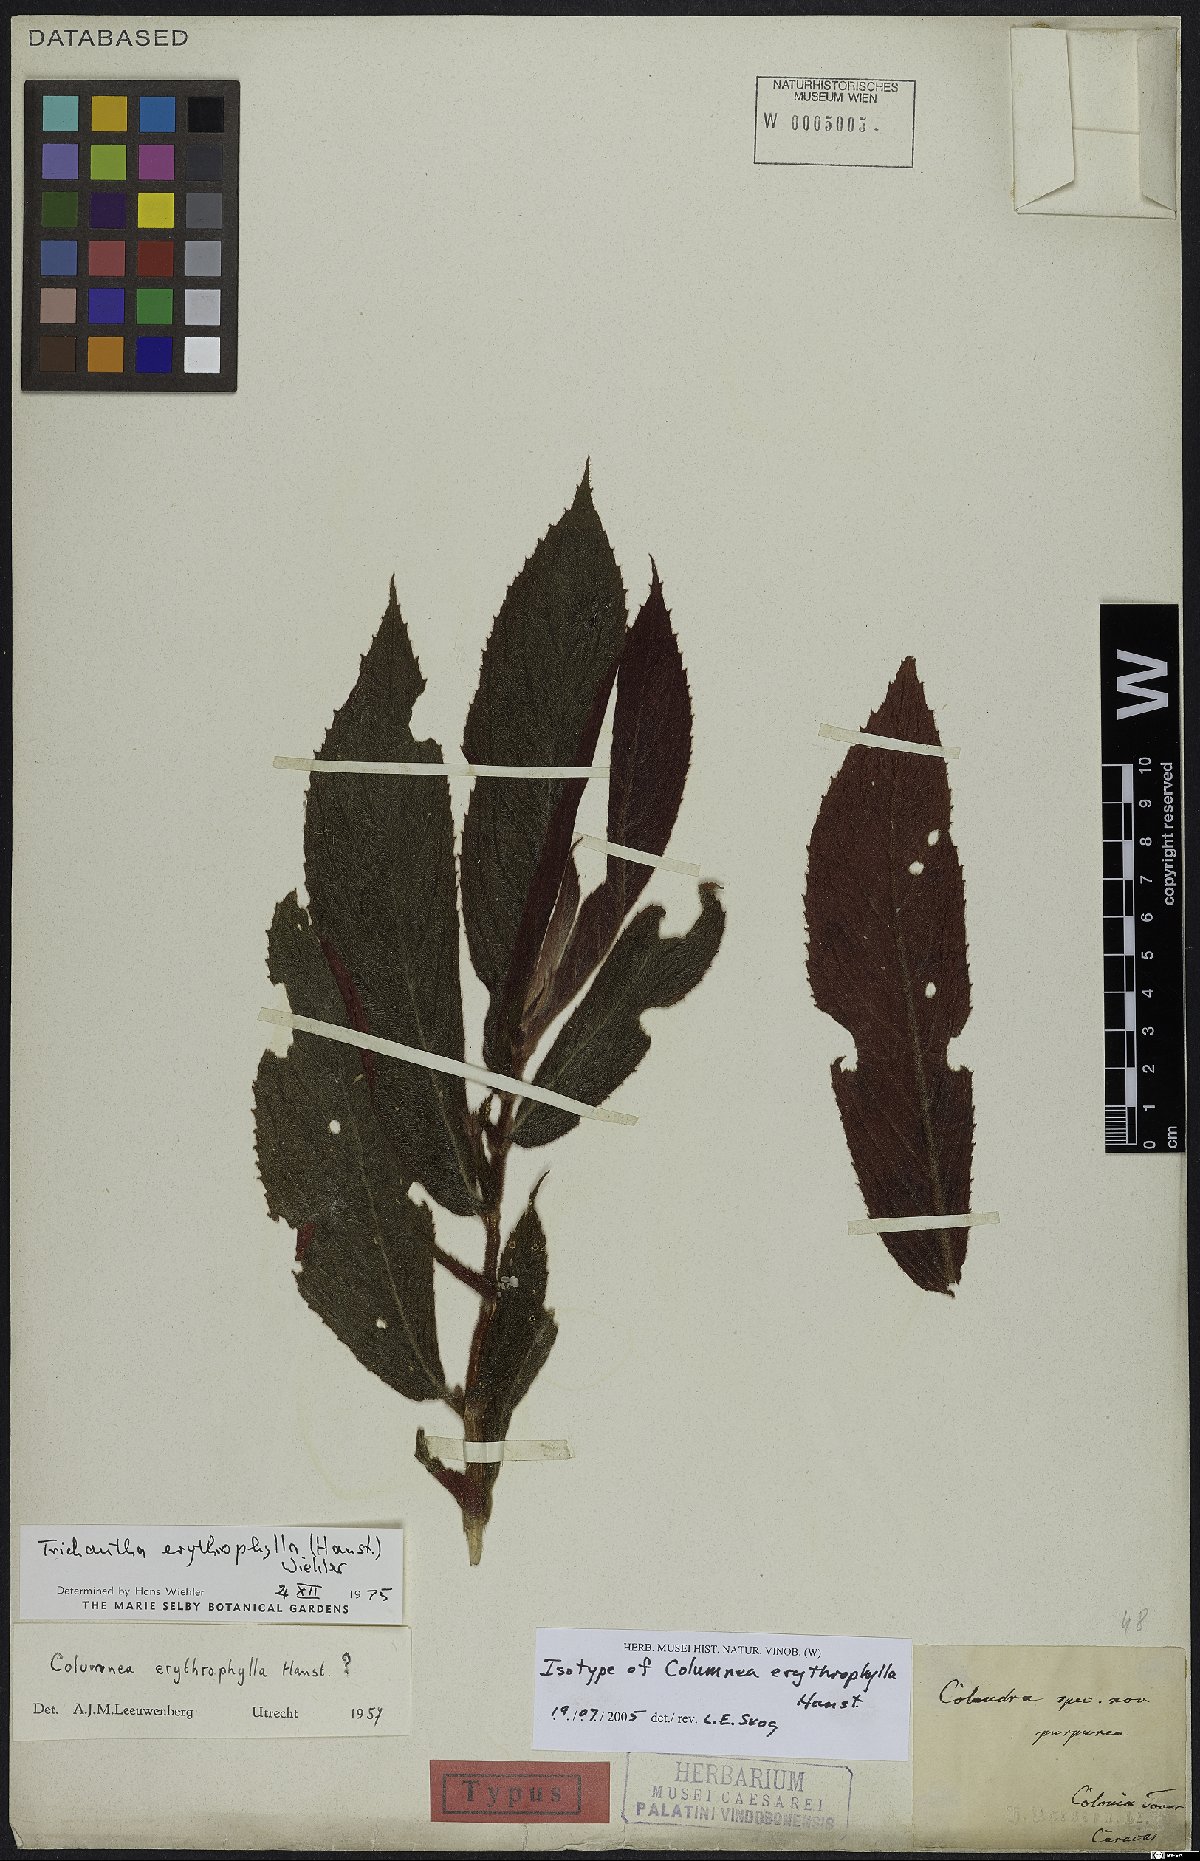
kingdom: Plantae
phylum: Tracheophyta
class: Magnoliopsida
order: Lamiales
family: Gesneriaceae
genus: Columnea
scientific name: Columnea erythrophylla
